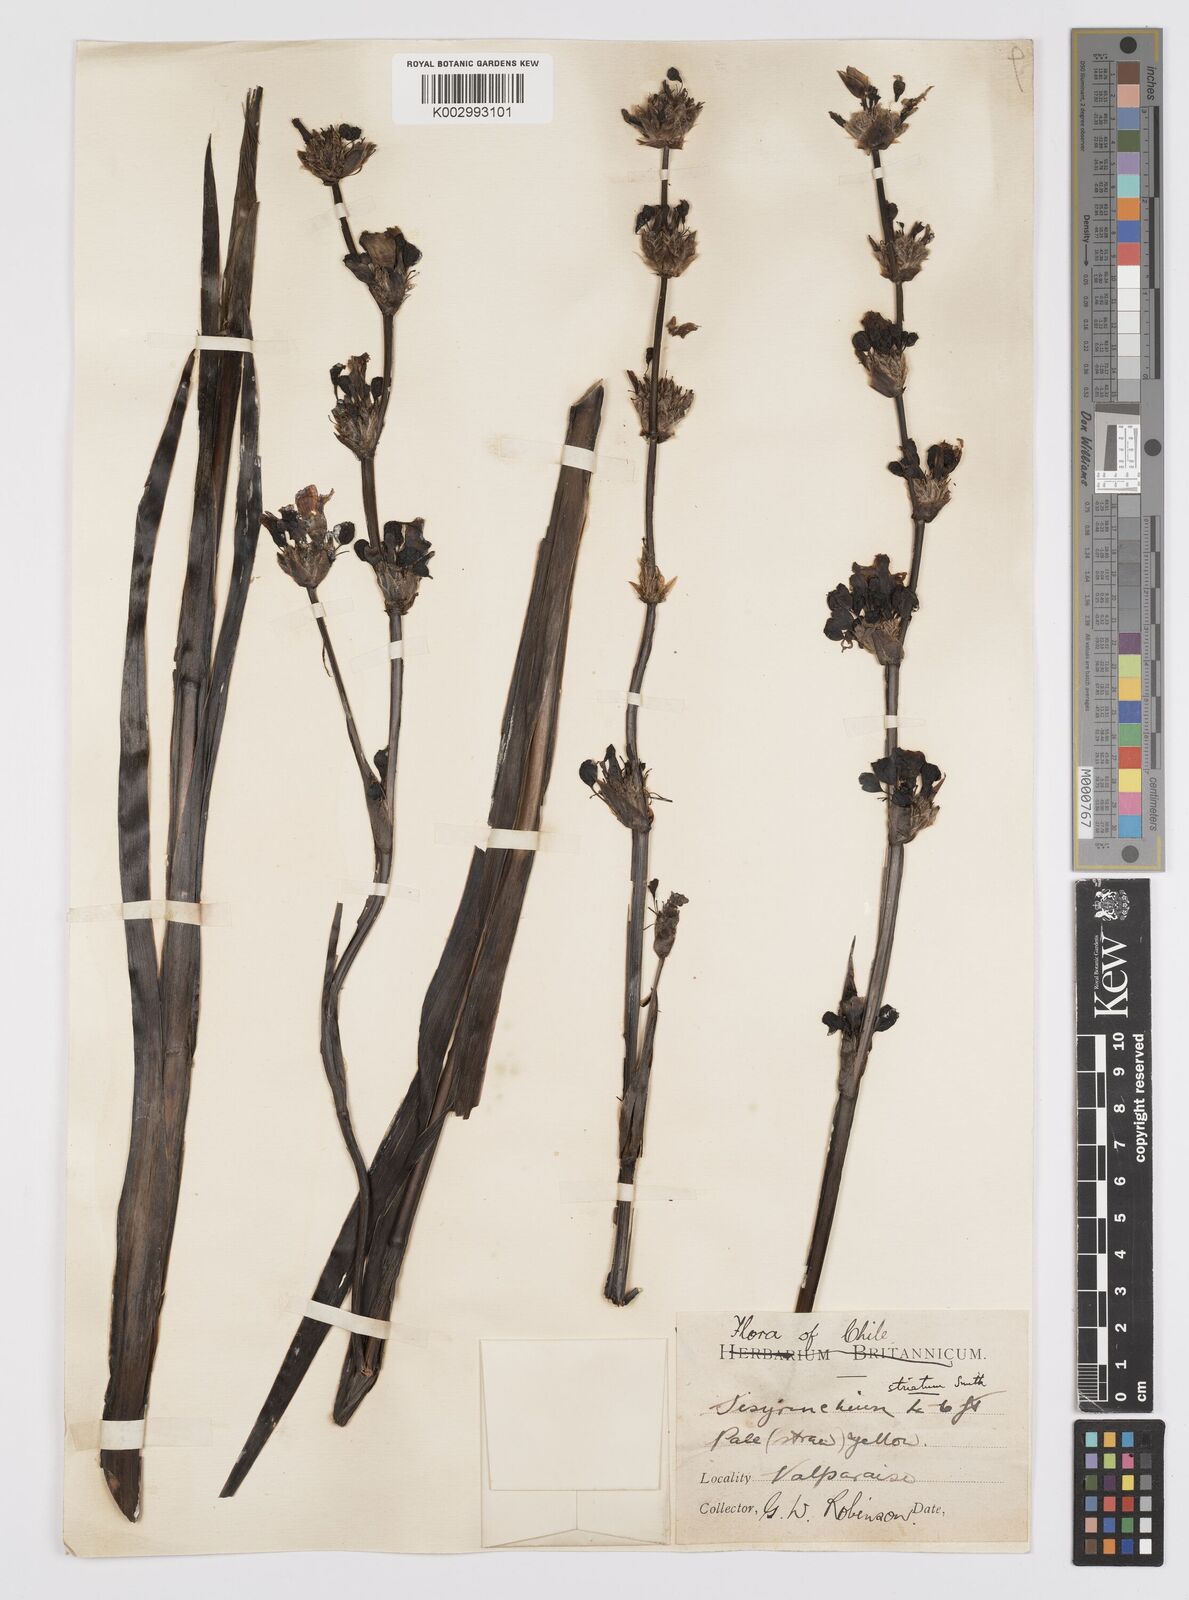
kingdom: Plantae
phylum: Tracheophyta
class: Liliopsida
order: Asparagales
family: Iridaceae
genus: Sisyrinchium
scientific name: Sisyrinchium striatum
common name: Pale yellow-eyed-grass
